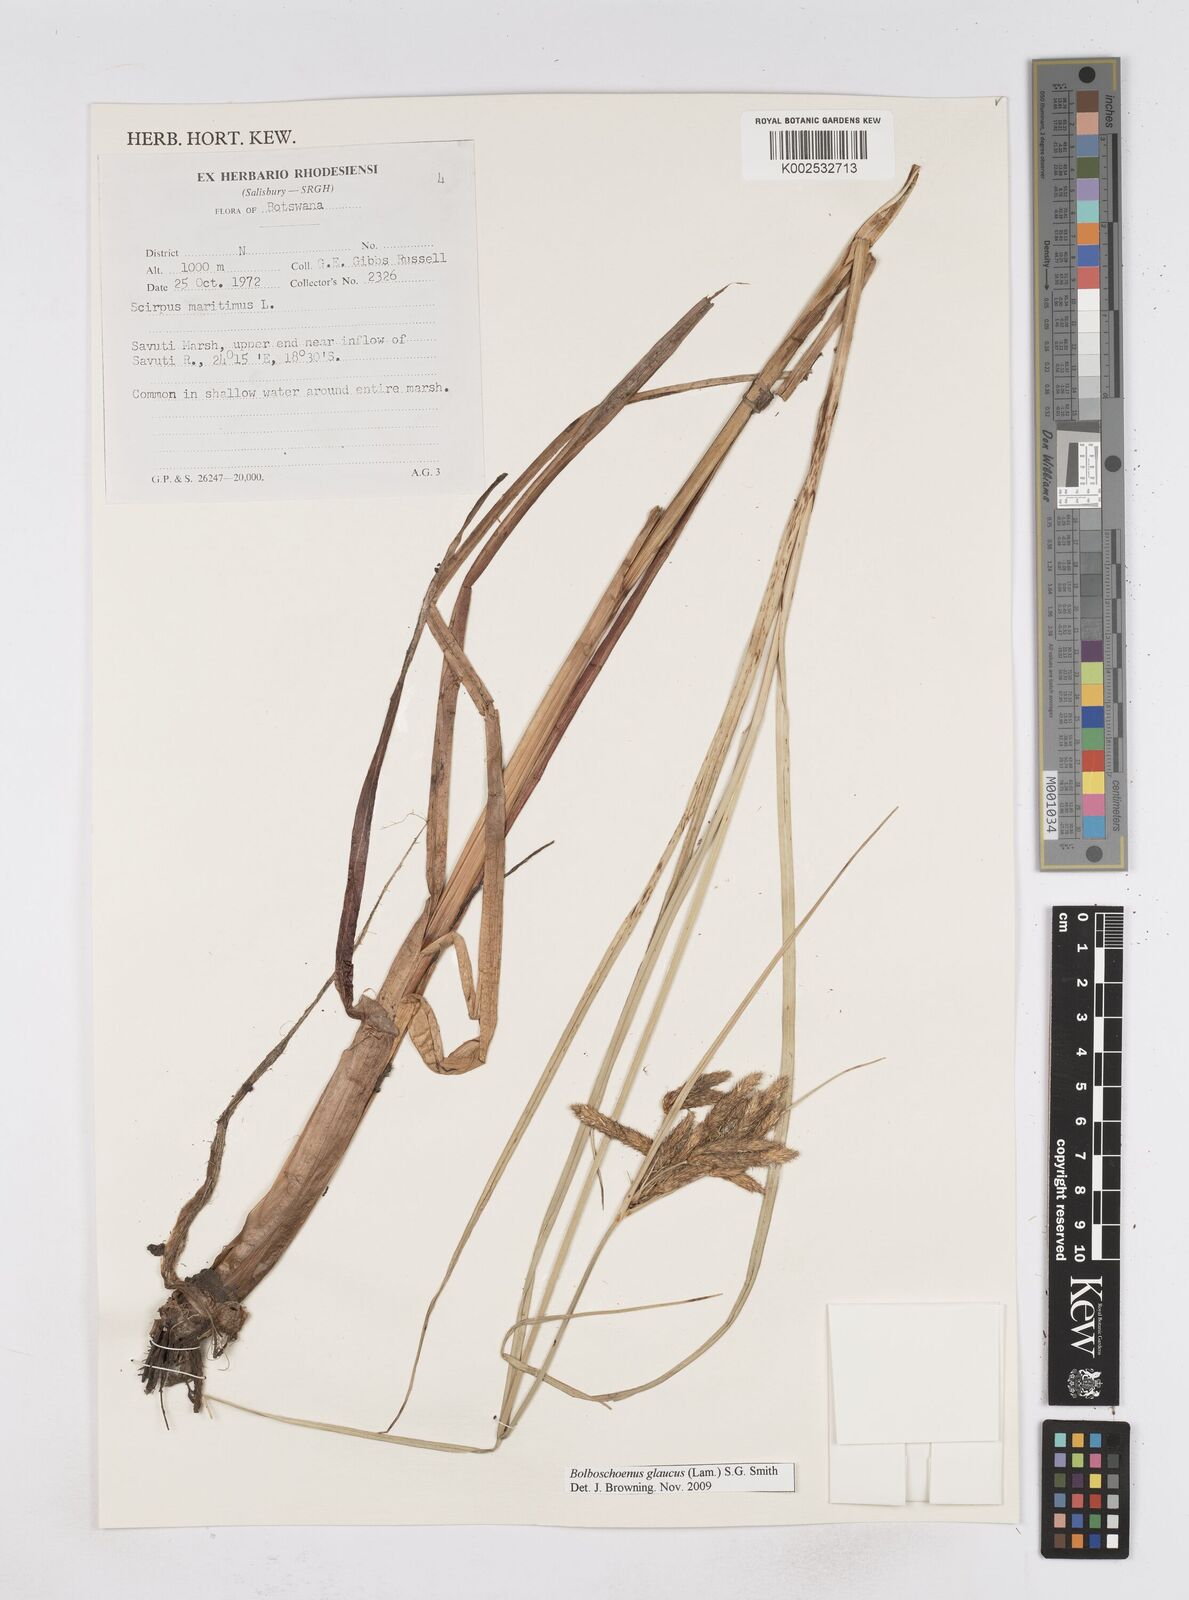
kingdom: Plantae
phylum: Tracheophyta
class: Liliopsida
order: Poales
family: Cyperaceae
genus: Bolboschoenus
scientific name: Bolboschoenus glaucus
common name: Tuberous bulrush
